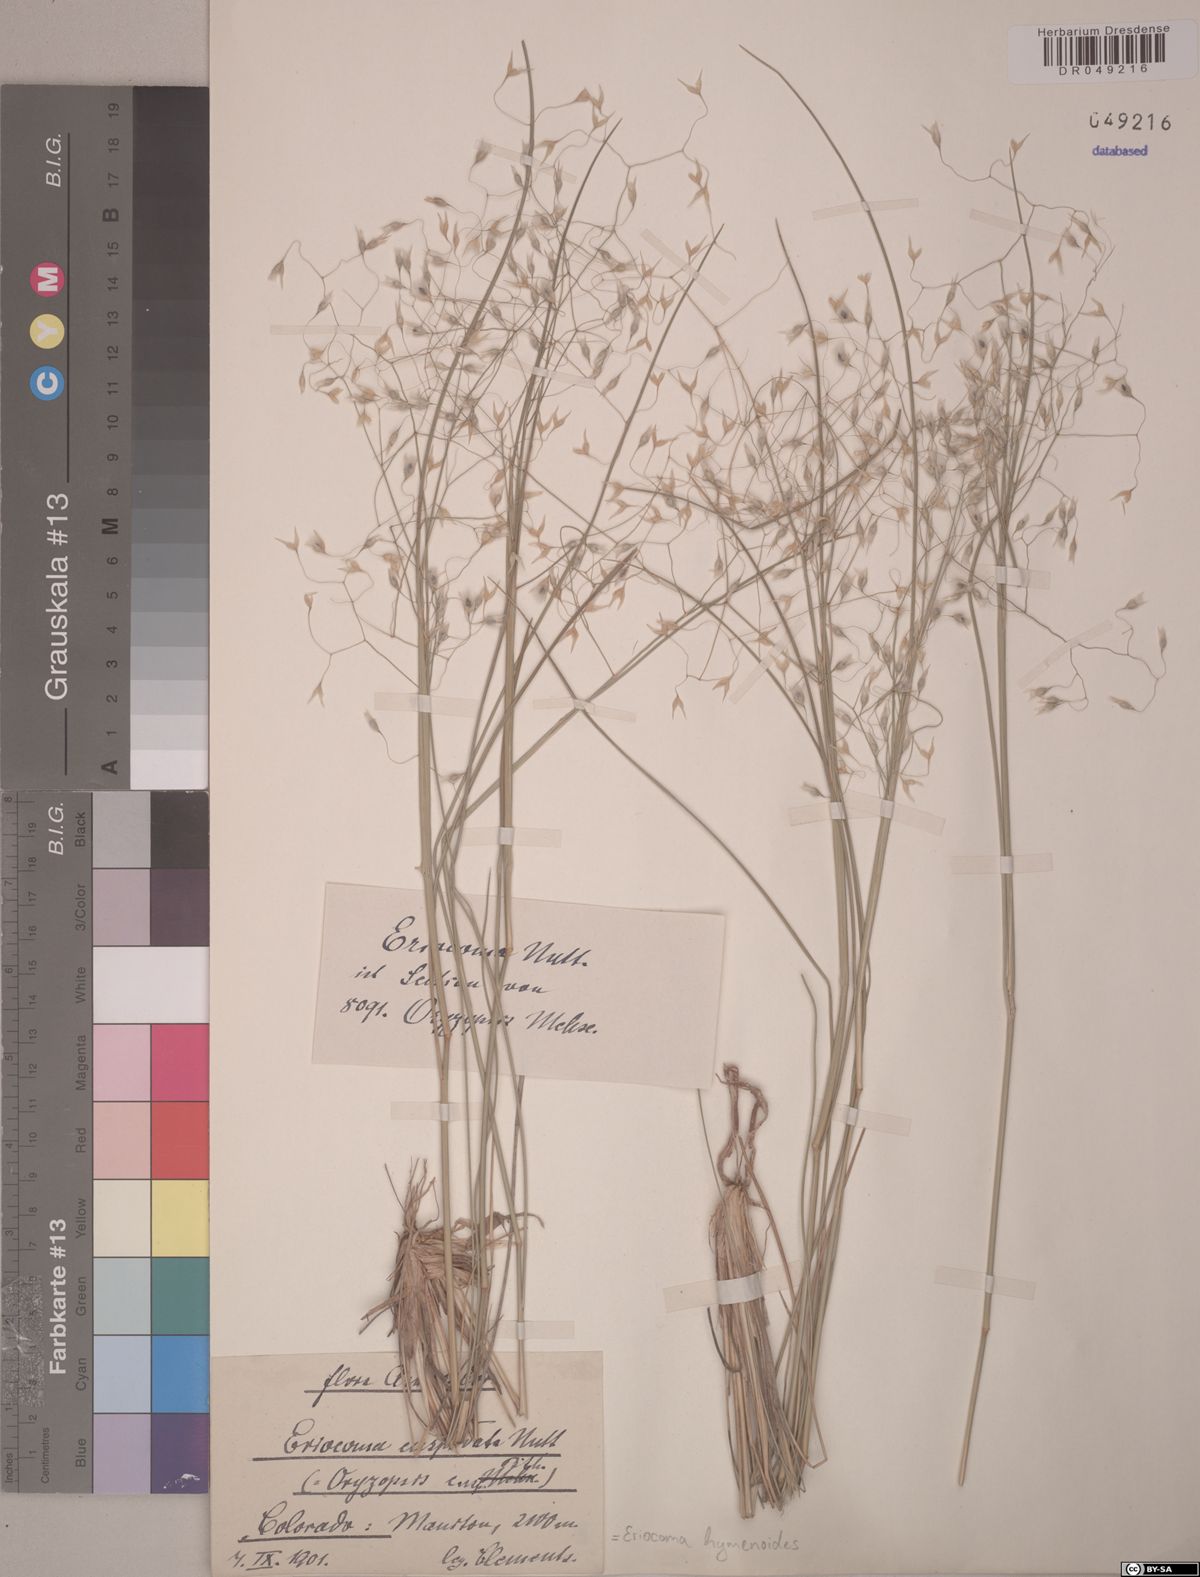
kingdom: Plantae
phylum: Tracheophyta
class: Liliopsida
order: Poales
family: Poaceae
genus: Eriocoma
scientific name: Eriocoma hymenoides
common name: Indian mountain ricegrass
